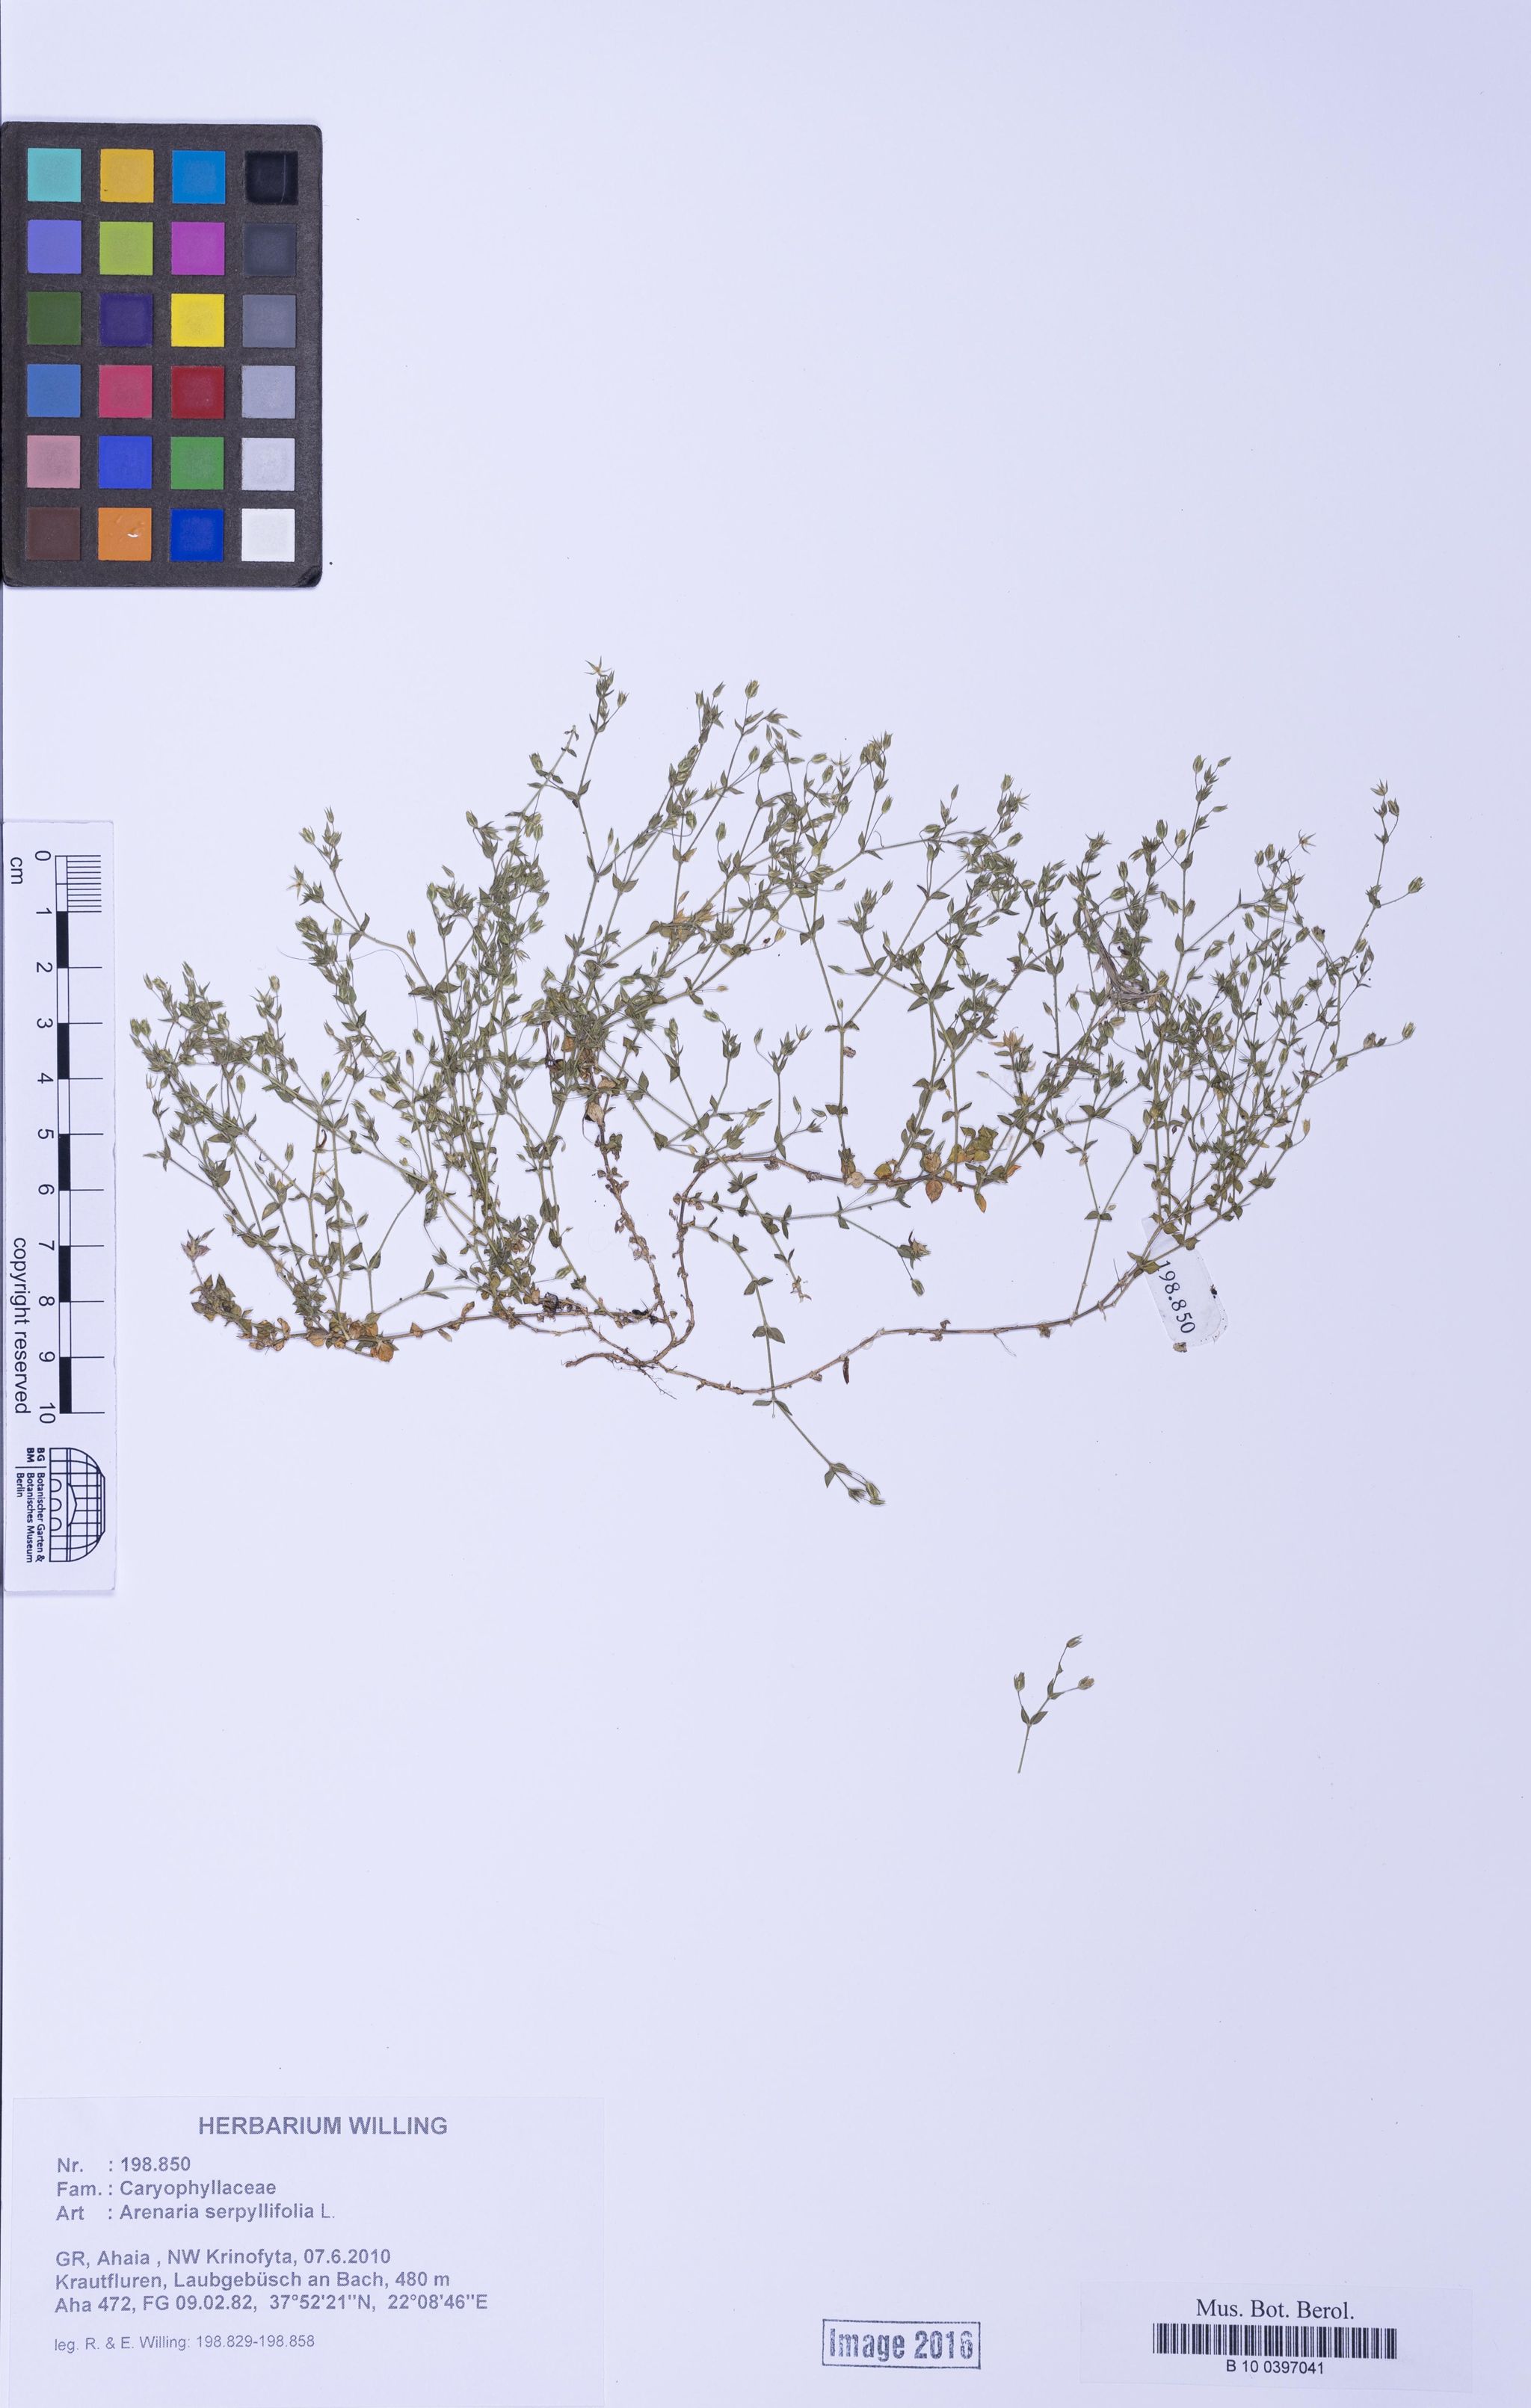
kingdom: Plantae
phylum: Tracheophyta
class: Magnoliopsida
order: Caryophyllales
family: Caryophyllaceae
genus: Arenaria
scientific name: Arenaria serpyllifolia
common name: Thyme-leaved sandwort
